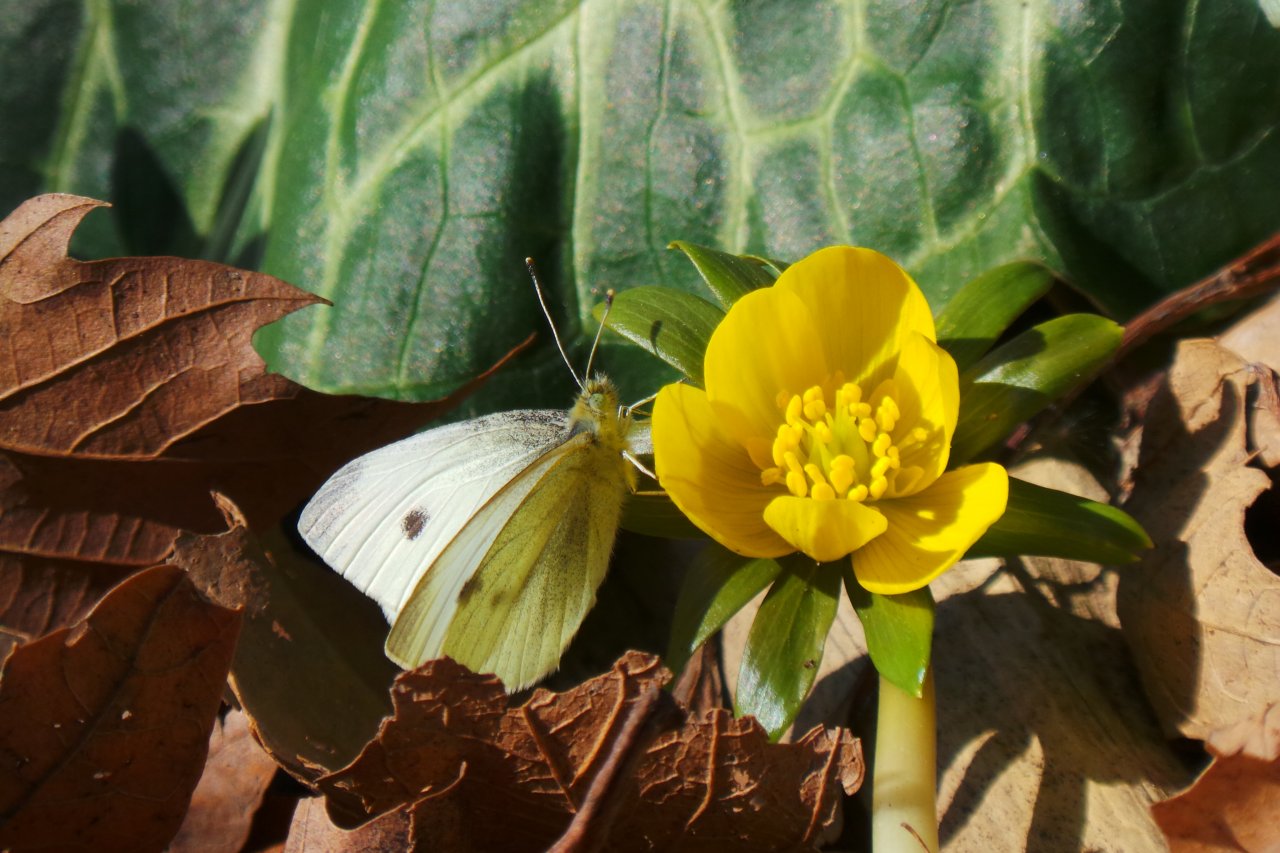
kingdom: Animalia
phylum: Arthropoda
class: Insecta
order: Lepidoptera
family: Pieridae
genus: Pieris
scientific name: Pieris rapae
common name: Cabbage White
